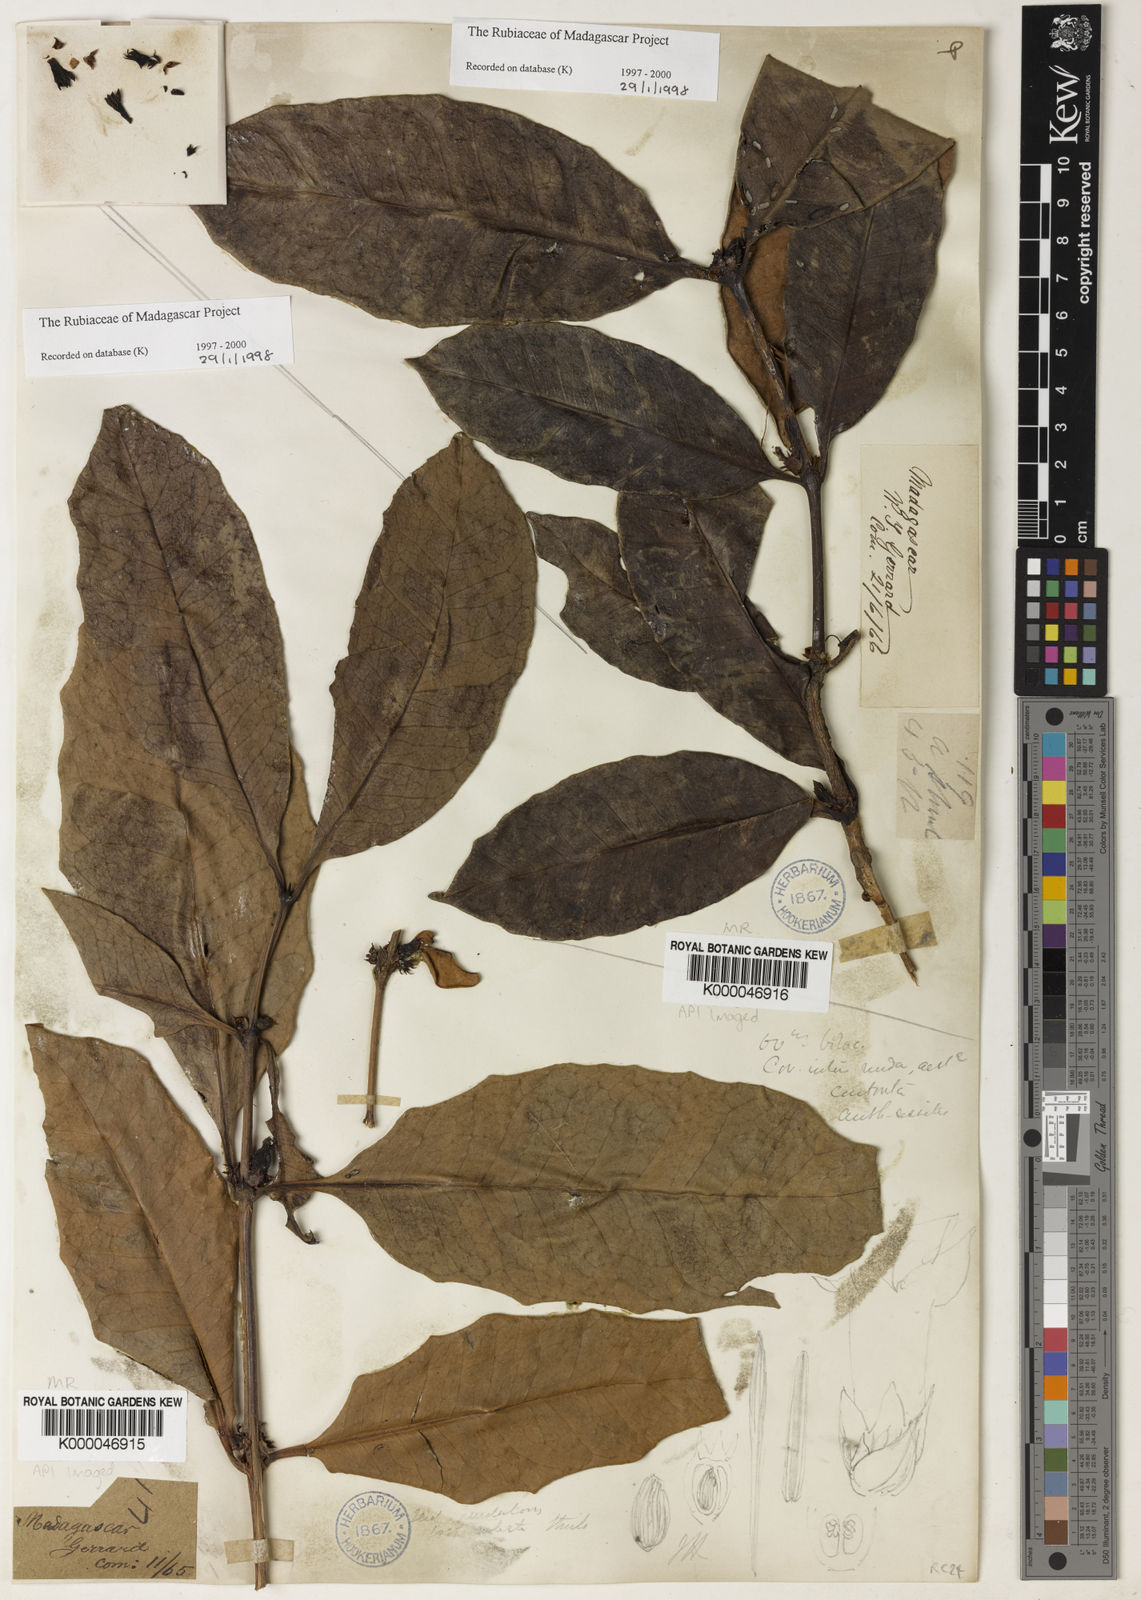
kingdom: Plantae
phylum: Tracheophyta
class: Magnoliopsida
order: Gentianales
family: Rubiaceae
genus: Chapelieria
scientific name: Chapelieria madagascariensis
